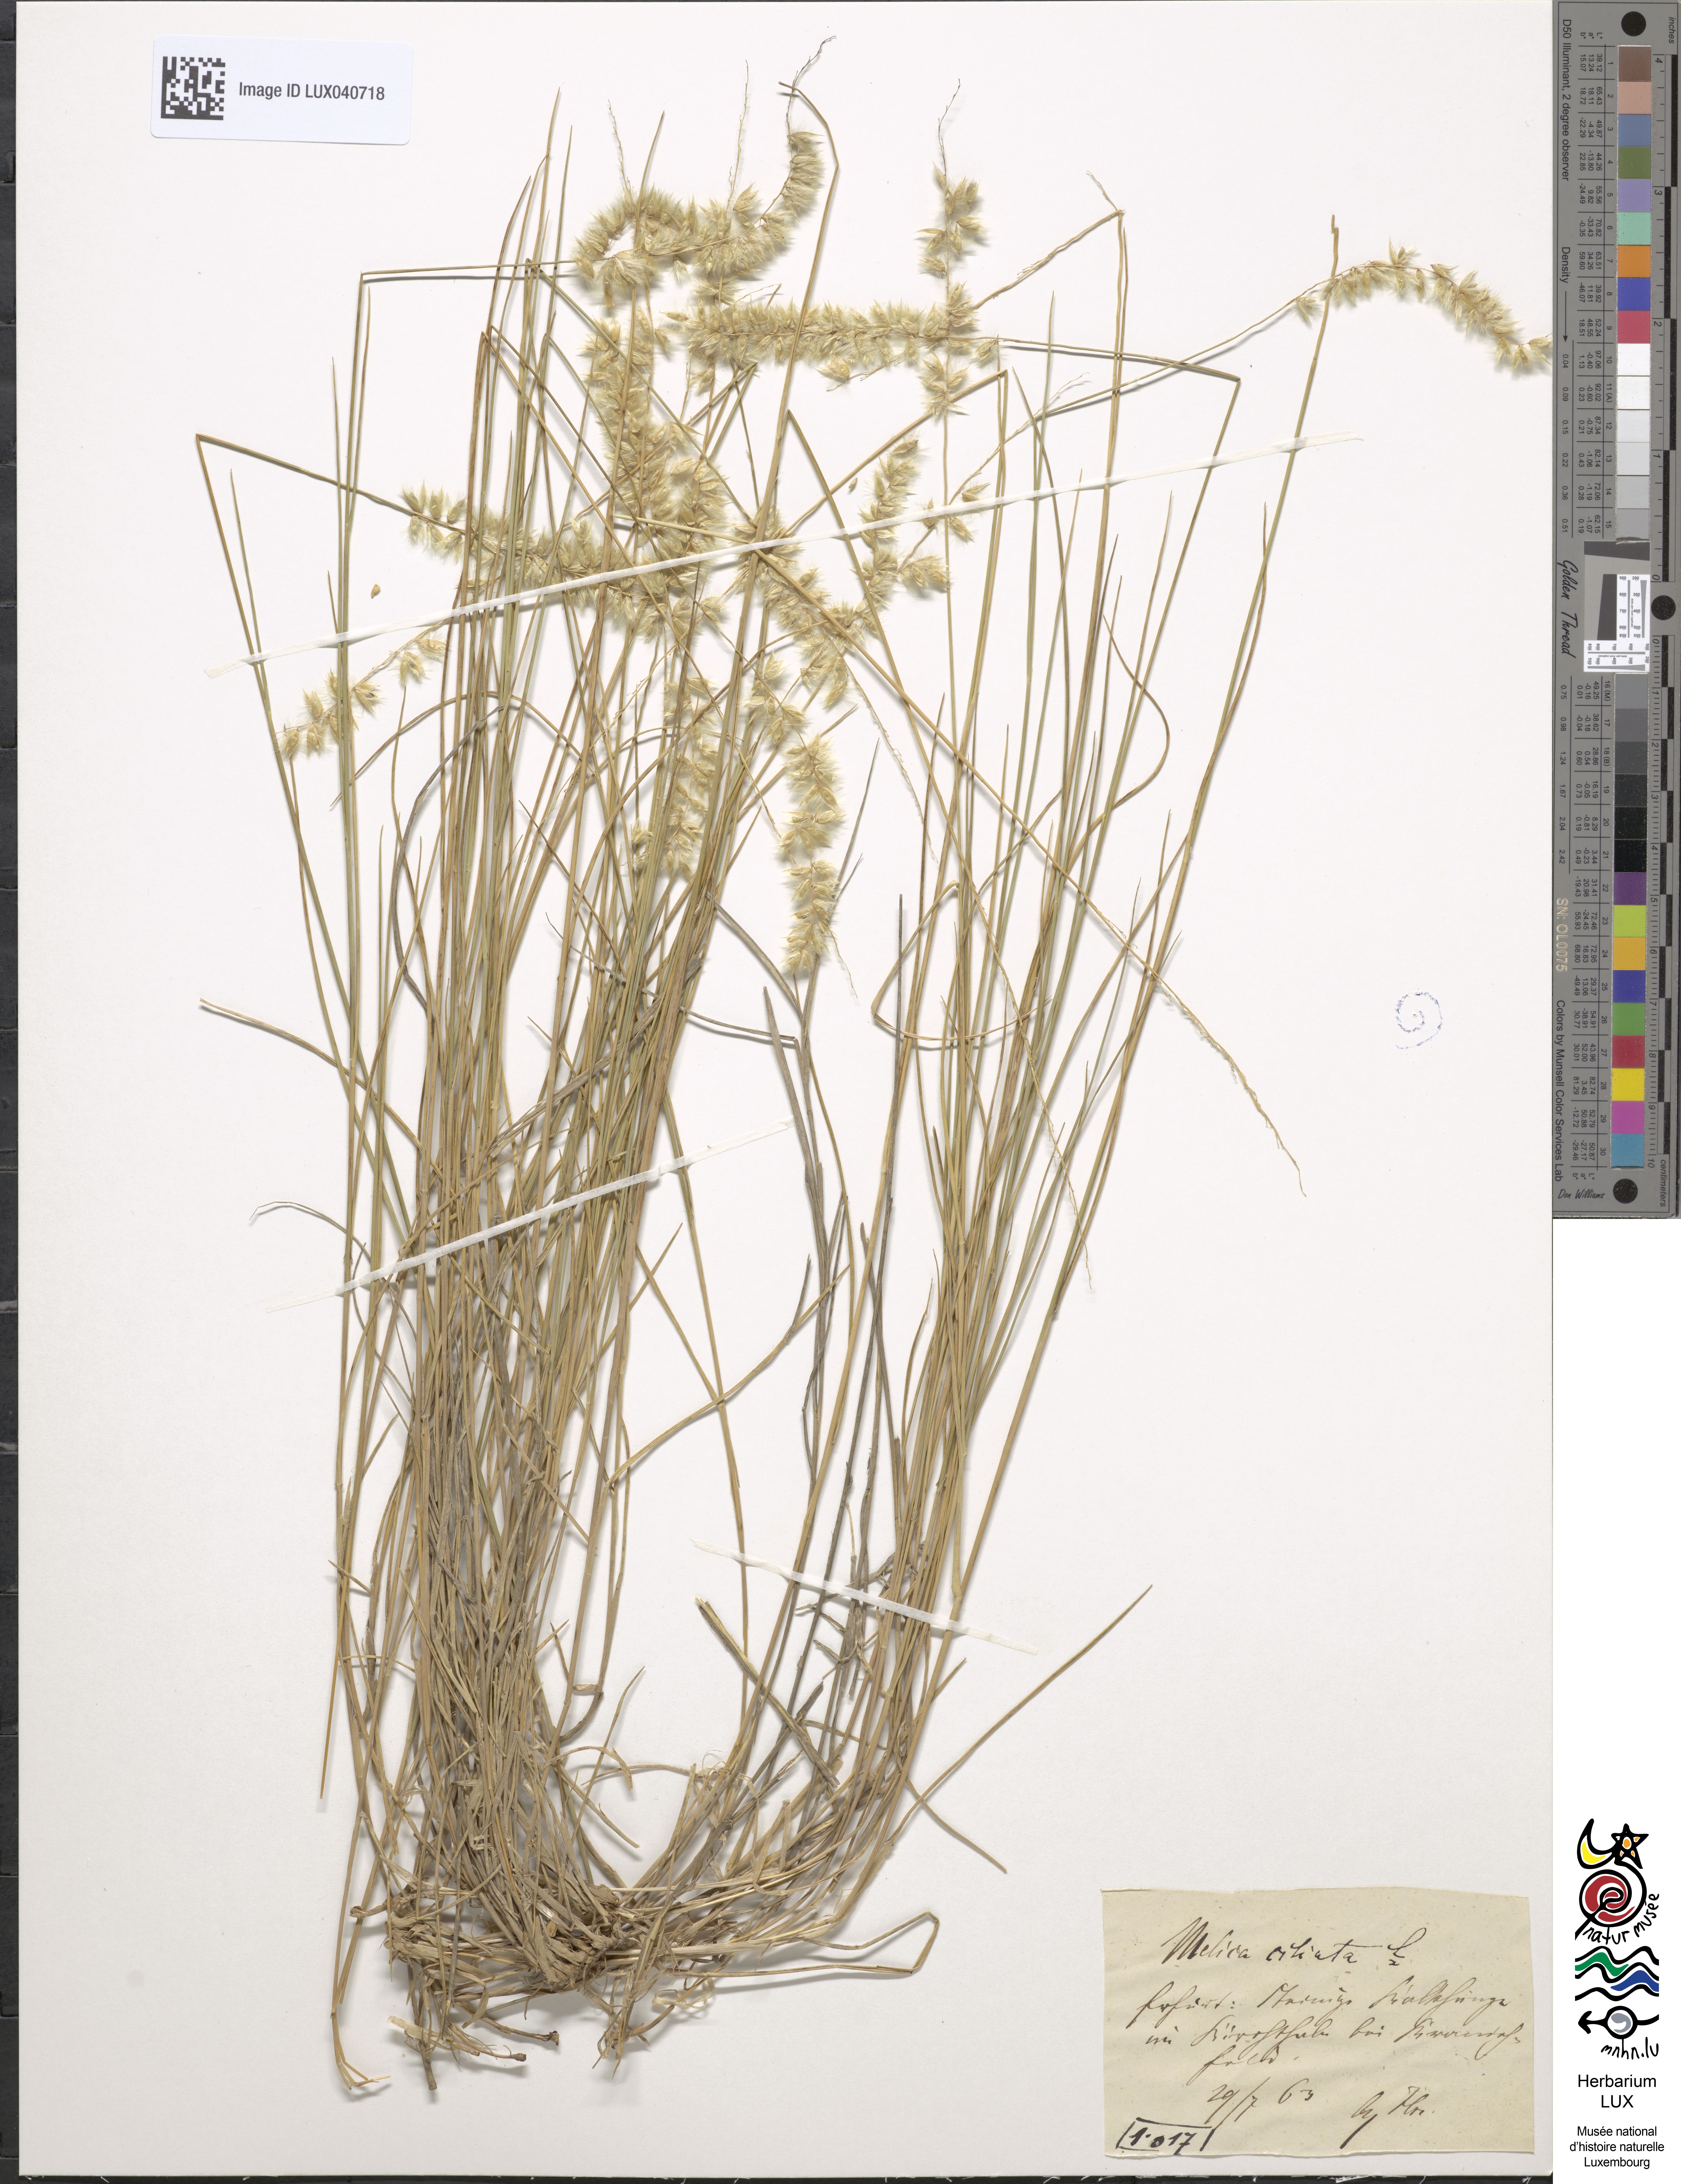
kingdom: Plantae
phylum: Tracheophyta
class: Liliopsida
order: Poales
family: Poaceae
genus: Melica
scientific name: Melica ciliata
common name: Hairy melicgrass
